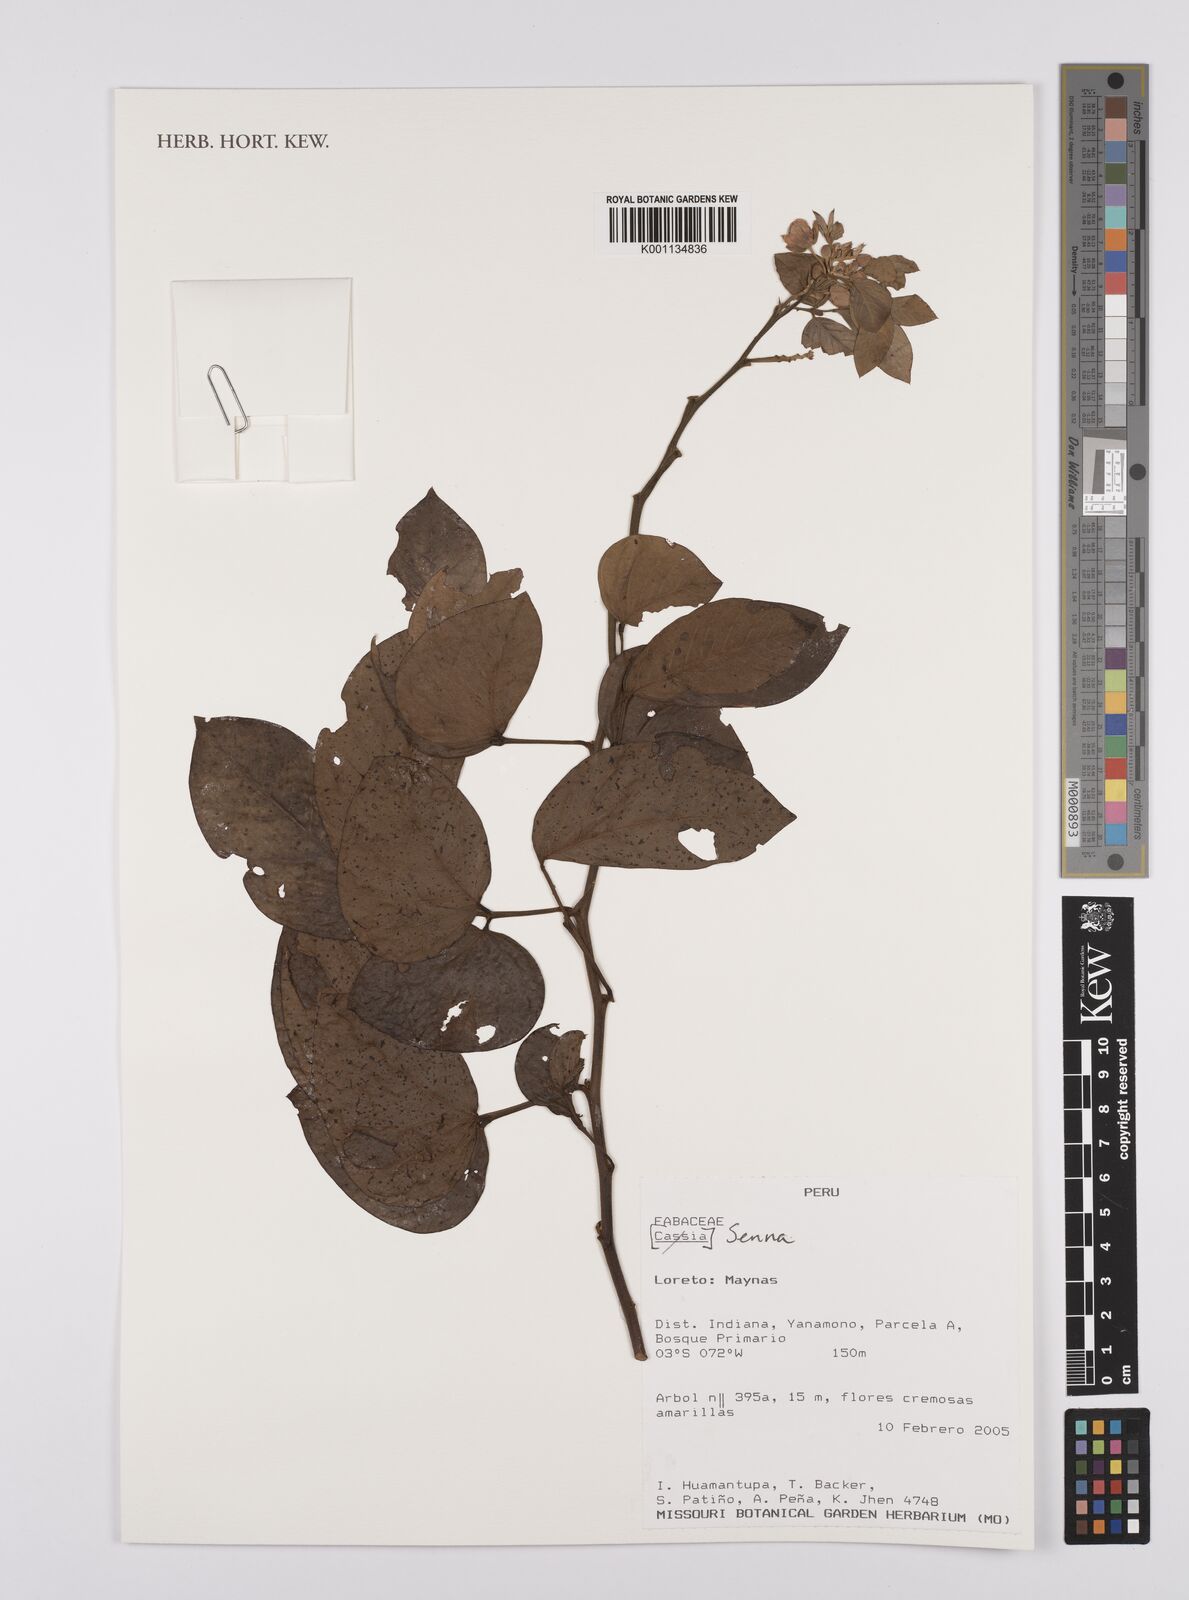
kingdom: Plantae
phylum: Tracheophyta
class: Magnoliopsida
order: Fabales
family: Fabaceae
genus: Senna
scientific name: Senna
